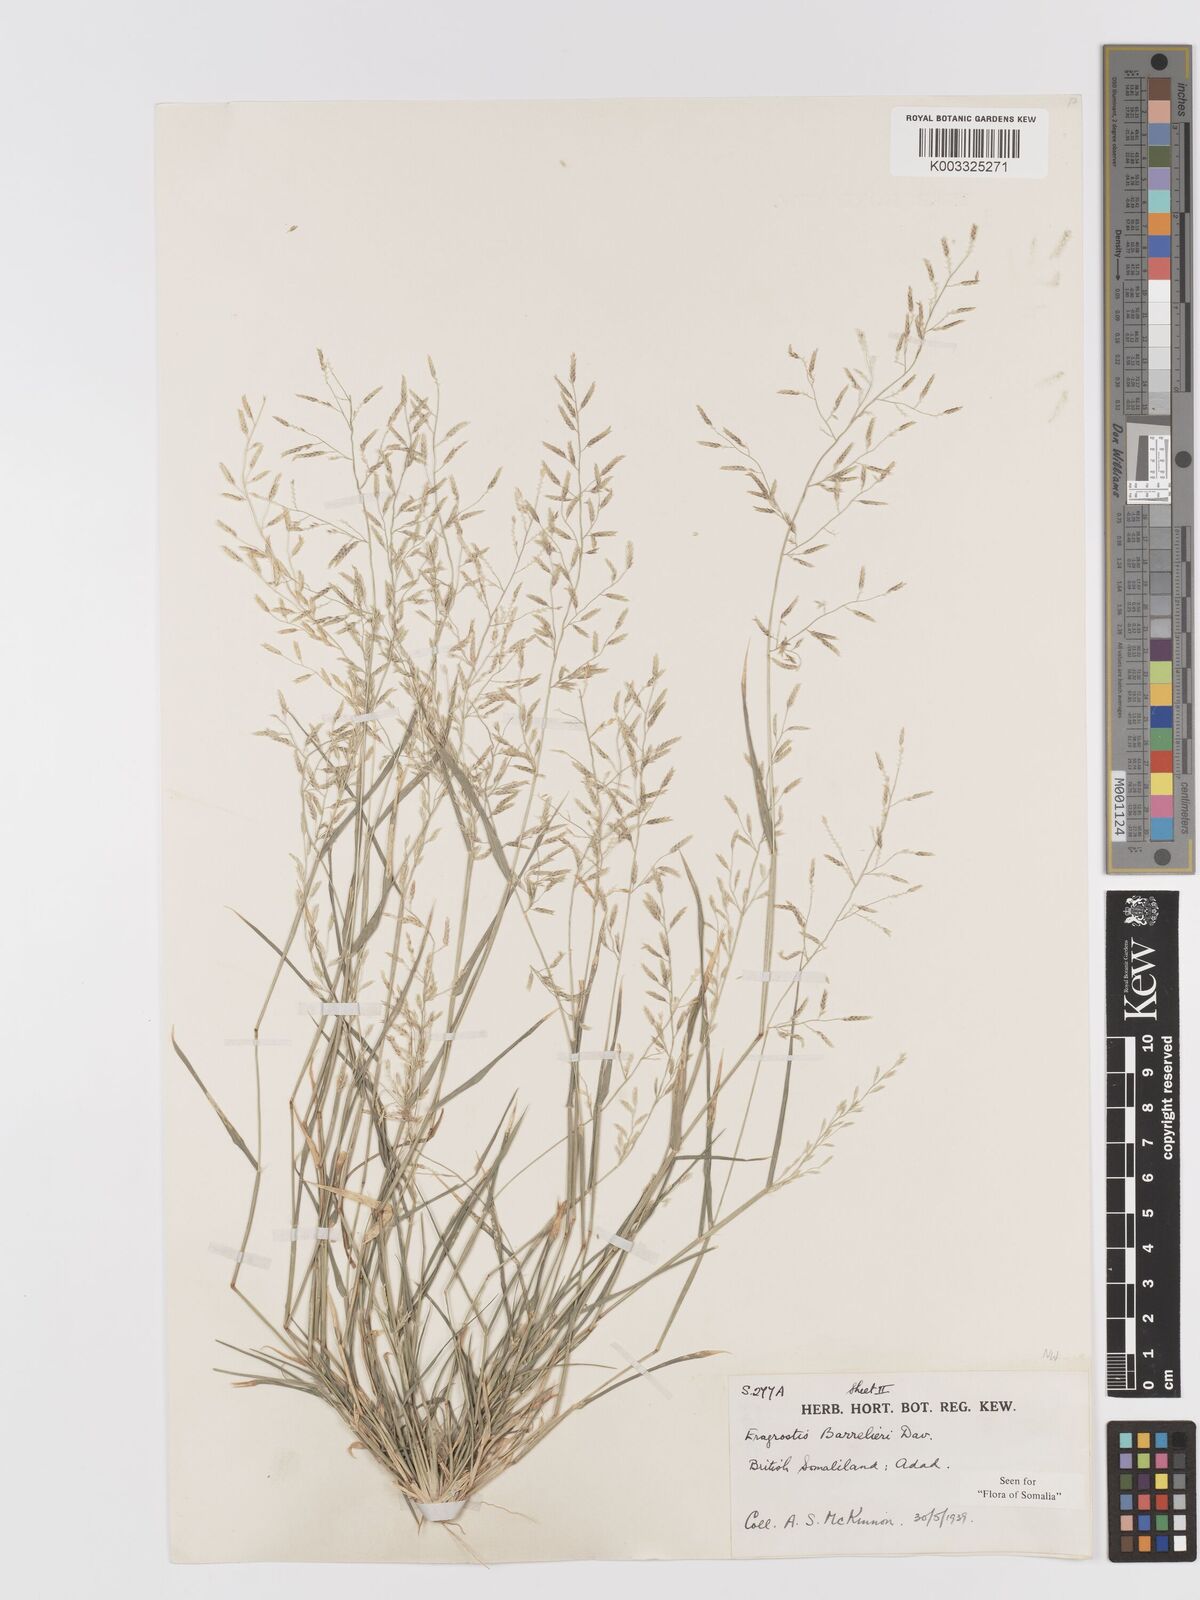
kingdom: Plantae
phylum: Tracheophyta
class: Liliopsida
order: Poales
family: Poaceae
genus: Eragrostis
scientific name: Eragrostis barrelieri
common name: Mediterranean lovegrass
